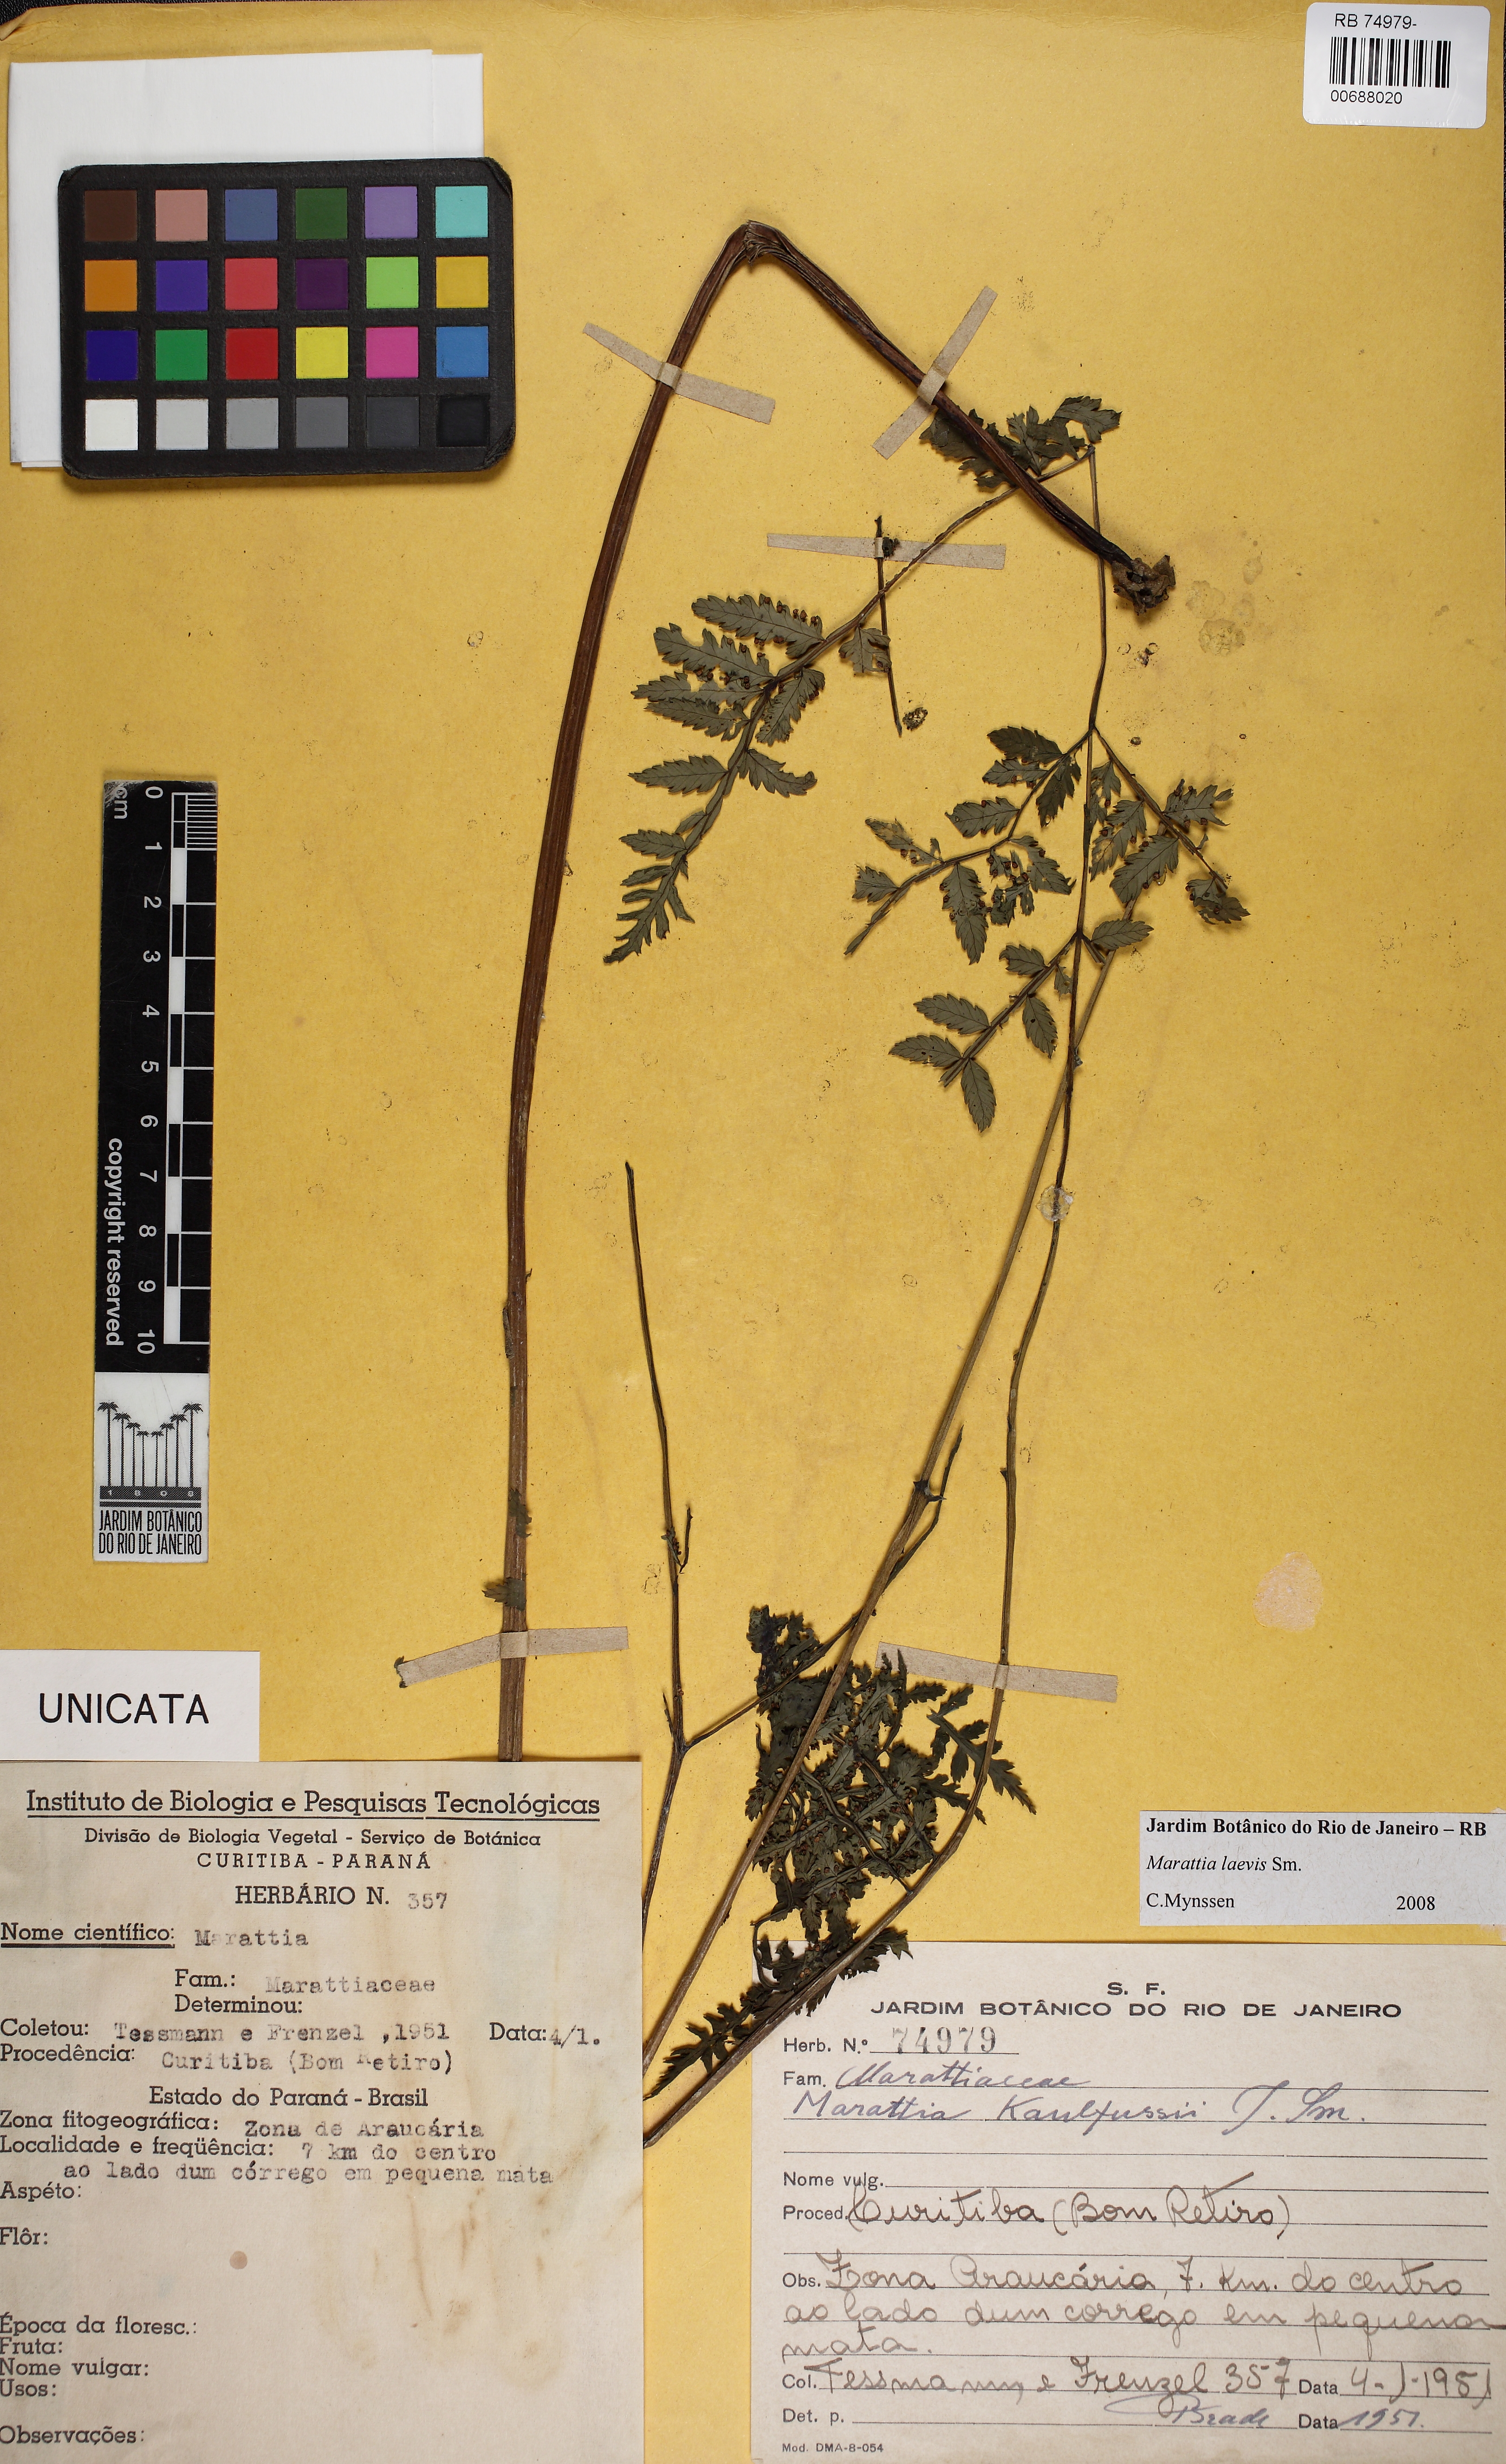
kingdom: Plantae
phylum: Tracheophyta
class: Polypodiopsida
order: Marattiales
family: Marattiaceae
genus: Eupodium
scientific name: Eupodium laeve
